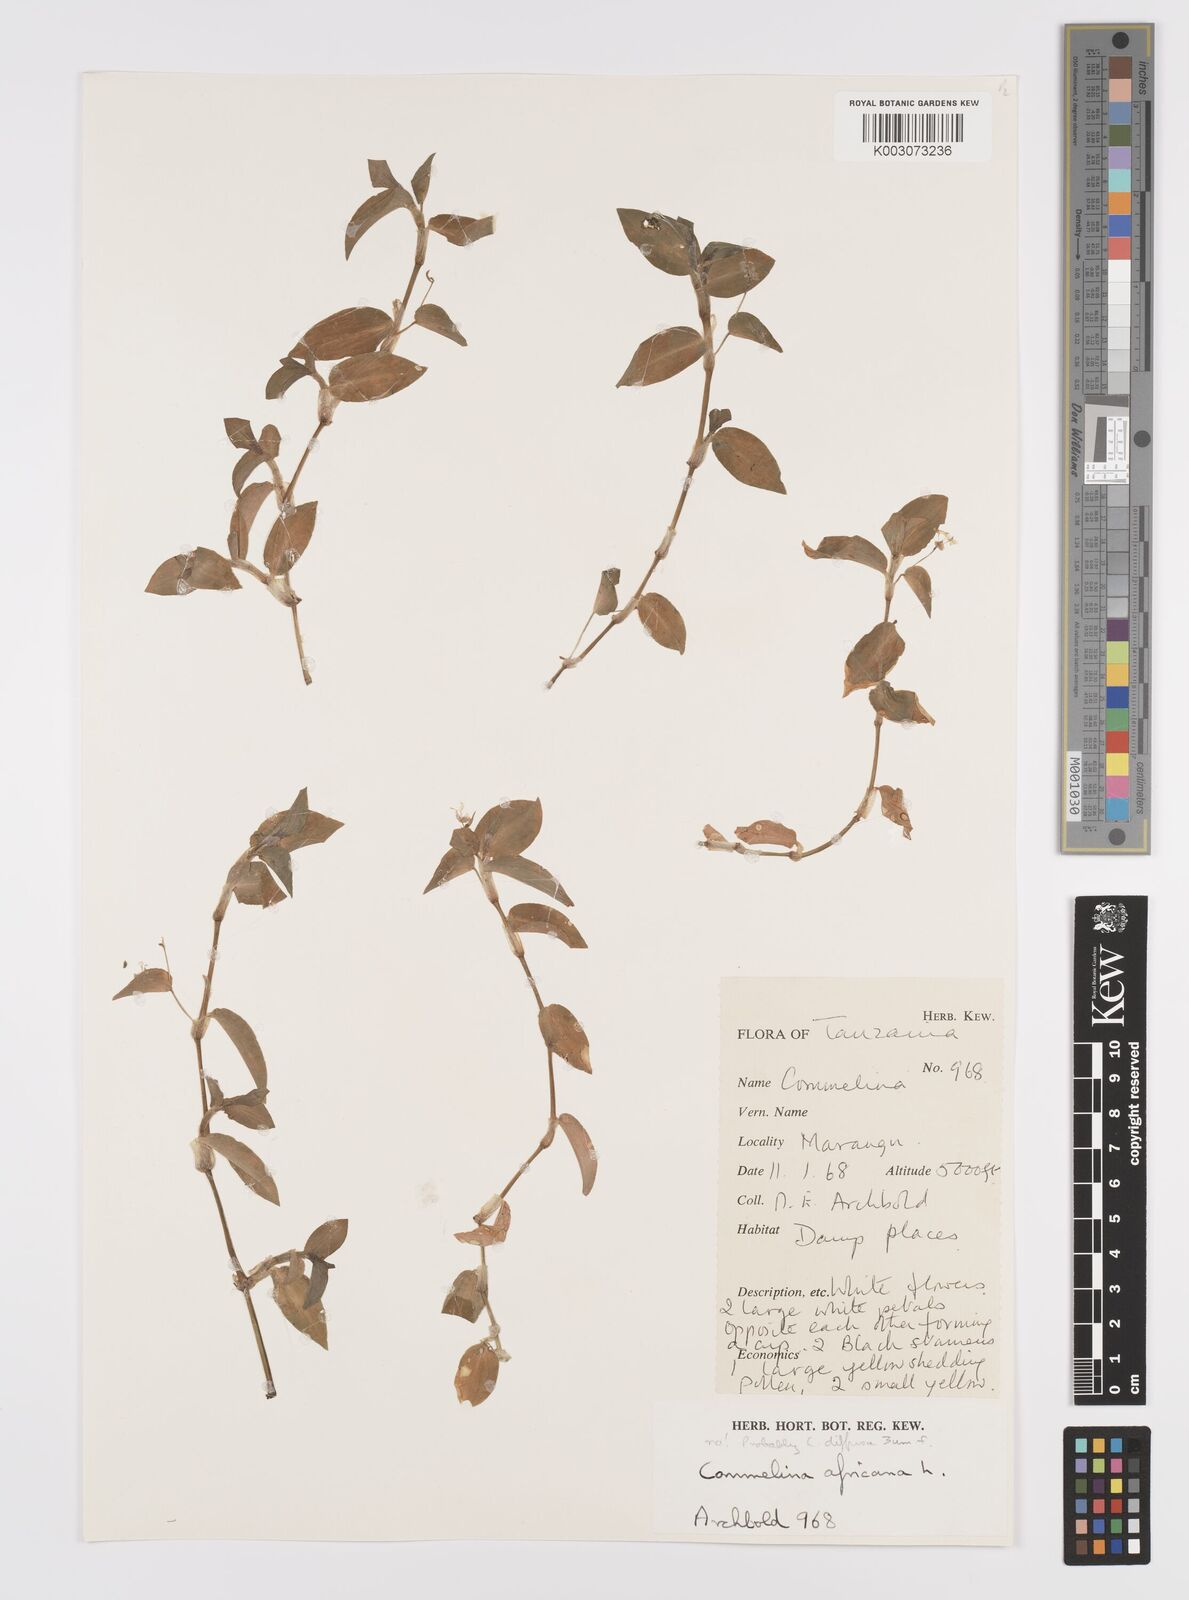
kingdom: Plantae
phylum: Tracheophyta
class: Liliopsida
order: Commelinales
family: Commelinaceae
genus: Commelina
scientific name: Commelina africana
